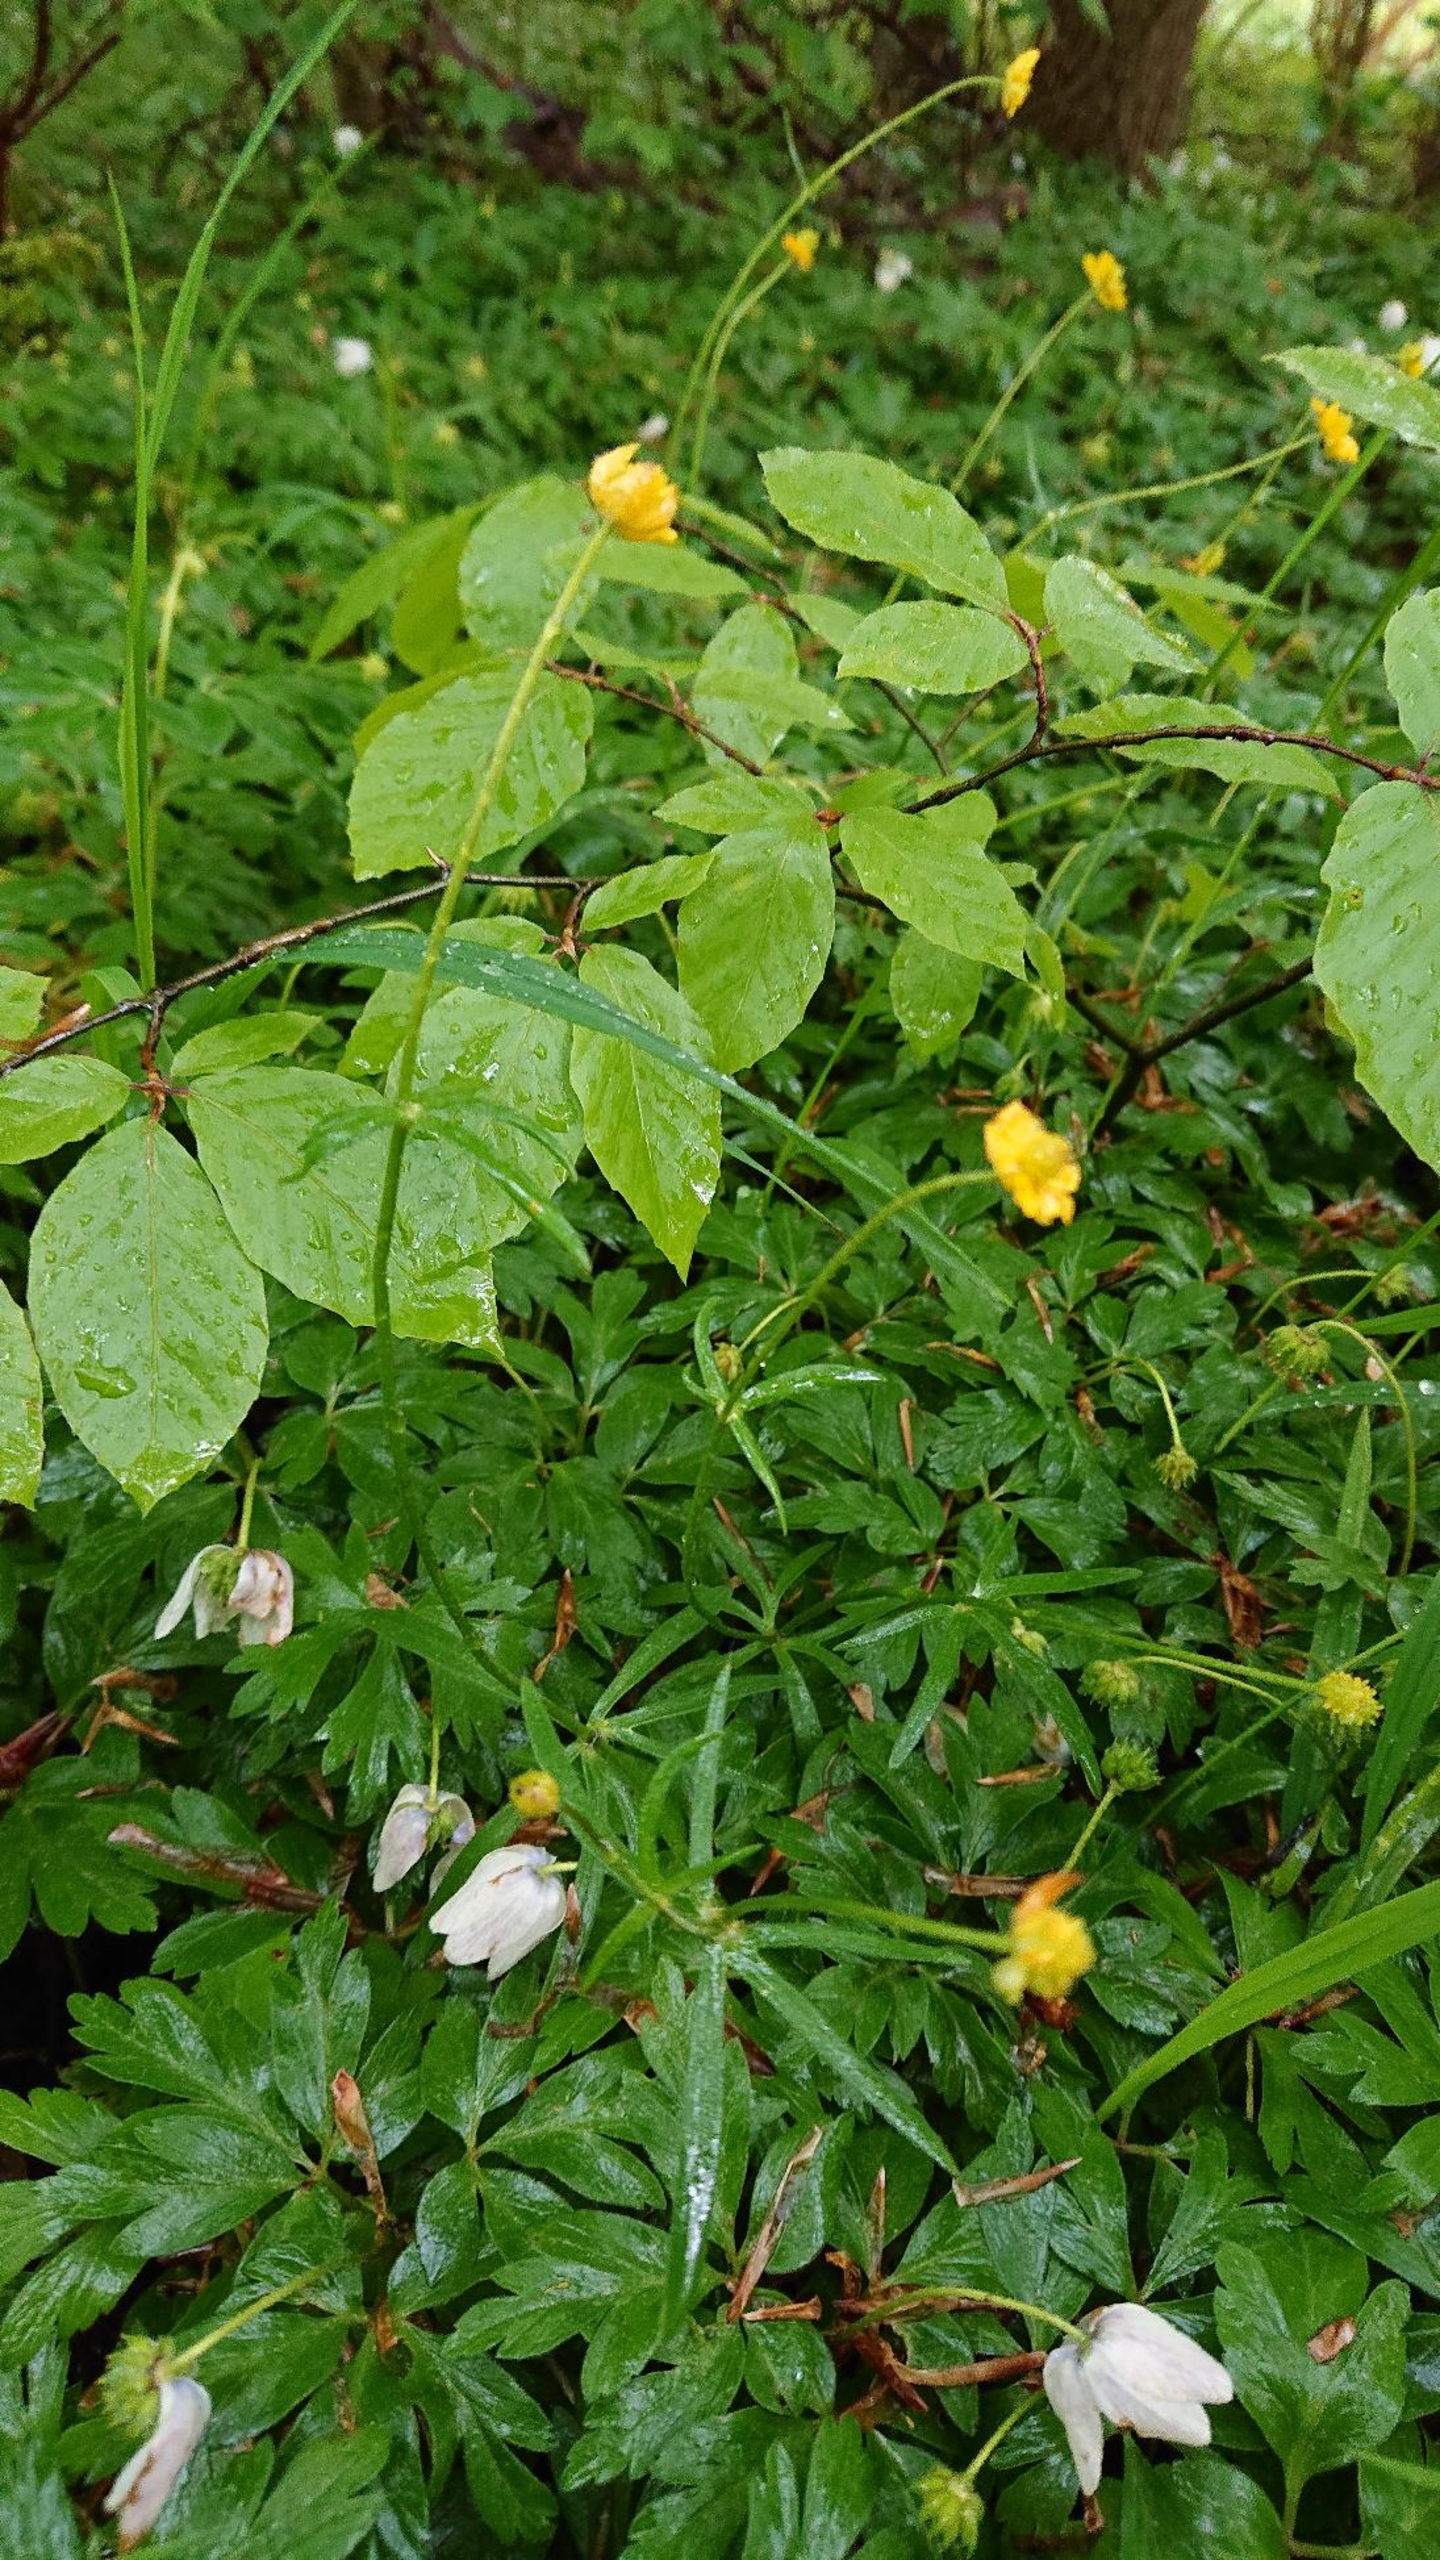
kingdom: Plantae
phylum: Tracheophyta
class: Magnoliopsida
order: Ranunculales
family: Ranunculaceae
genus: Ranunculus
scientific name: Ranunculus auricomus
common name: Nyrebladet ranunkel
